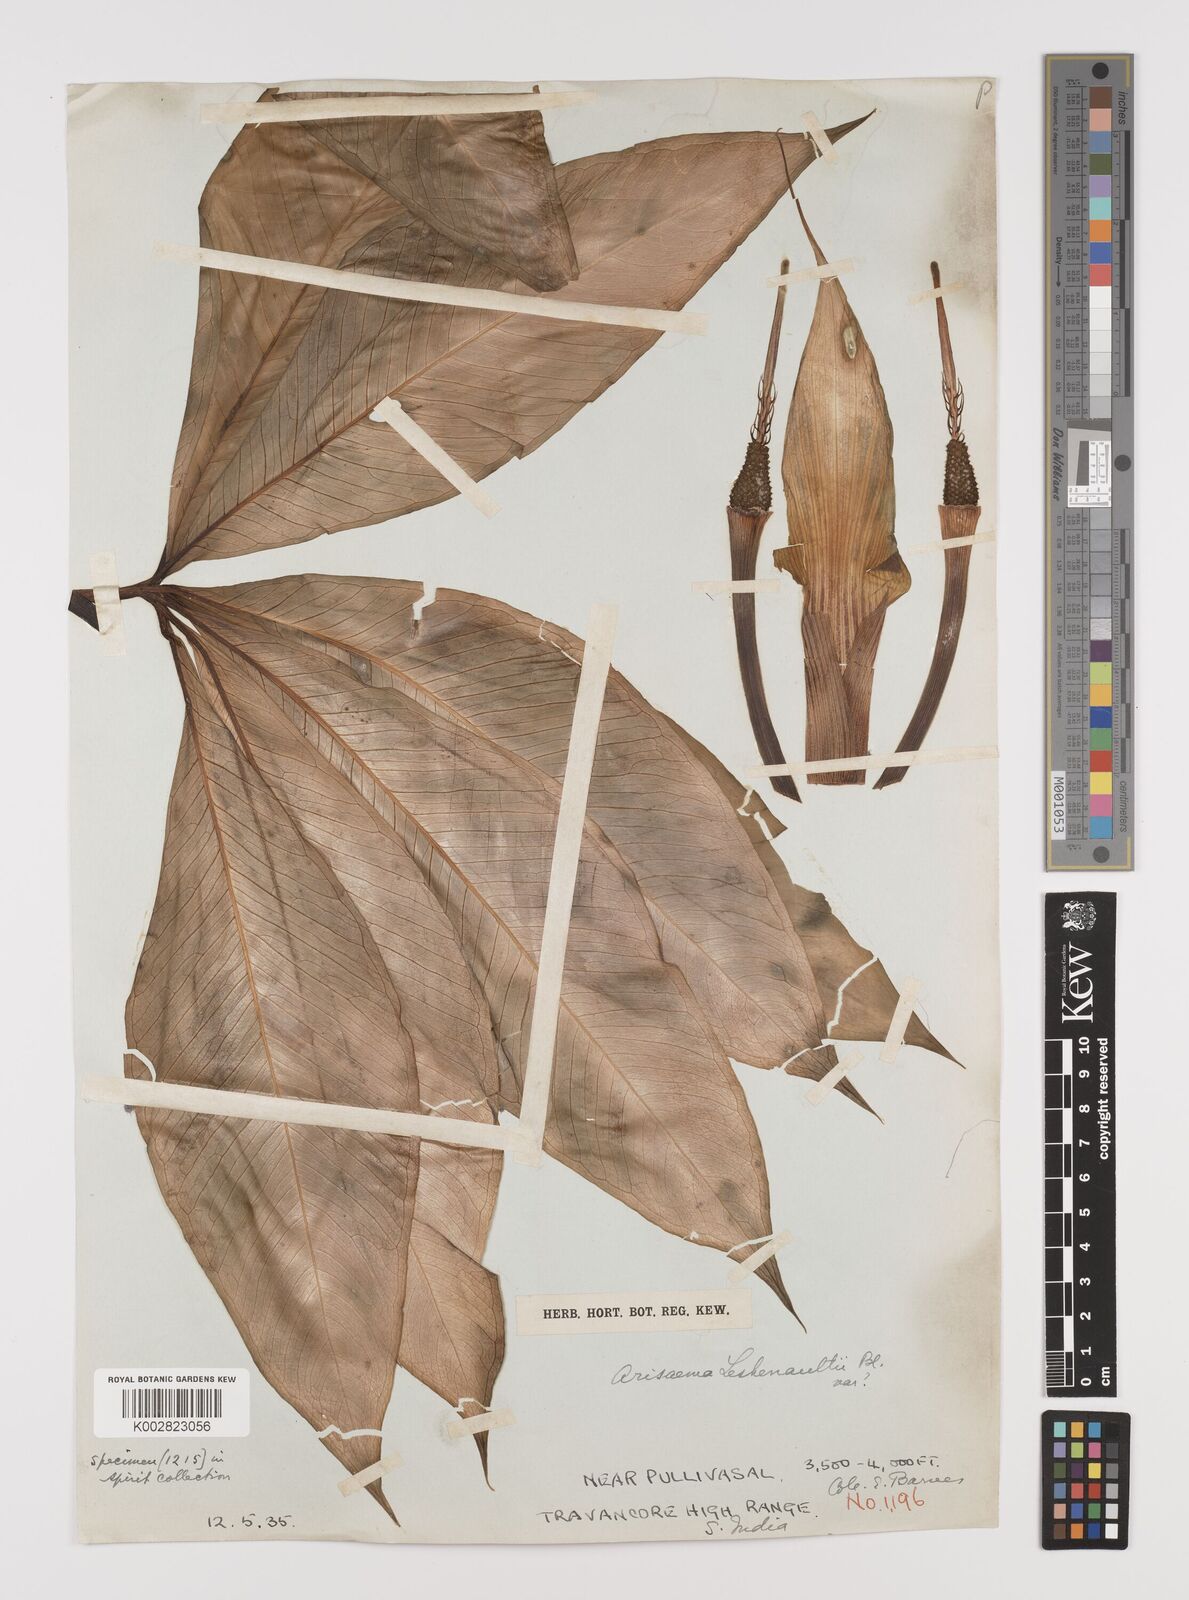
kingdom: Plantae
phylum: Tracheophyta
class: Liliopsida
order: Alismatales
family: Araceae
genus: Arisaema
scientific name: Arisaema leschenaultii
